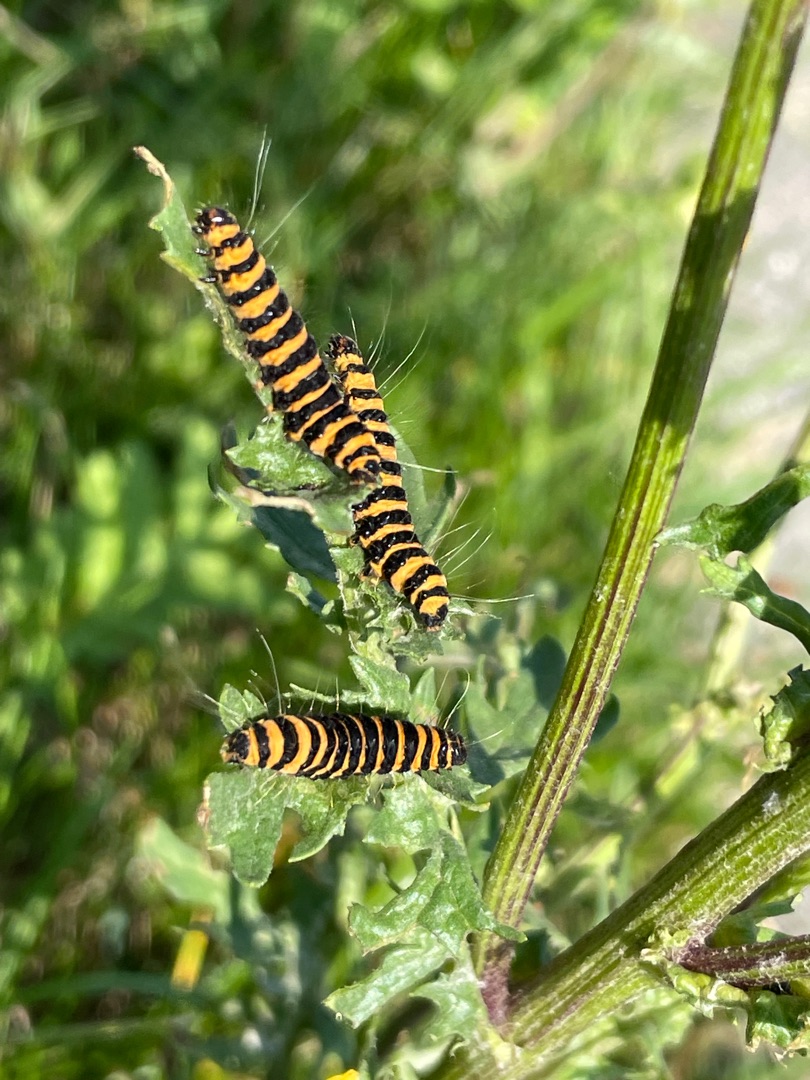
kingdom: Animalia
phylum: Arthropoda
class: Insecta
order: Lepidoptera
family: Erebidae
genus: Tyria
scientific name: Tyria jacobaeae
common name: Blodplet
